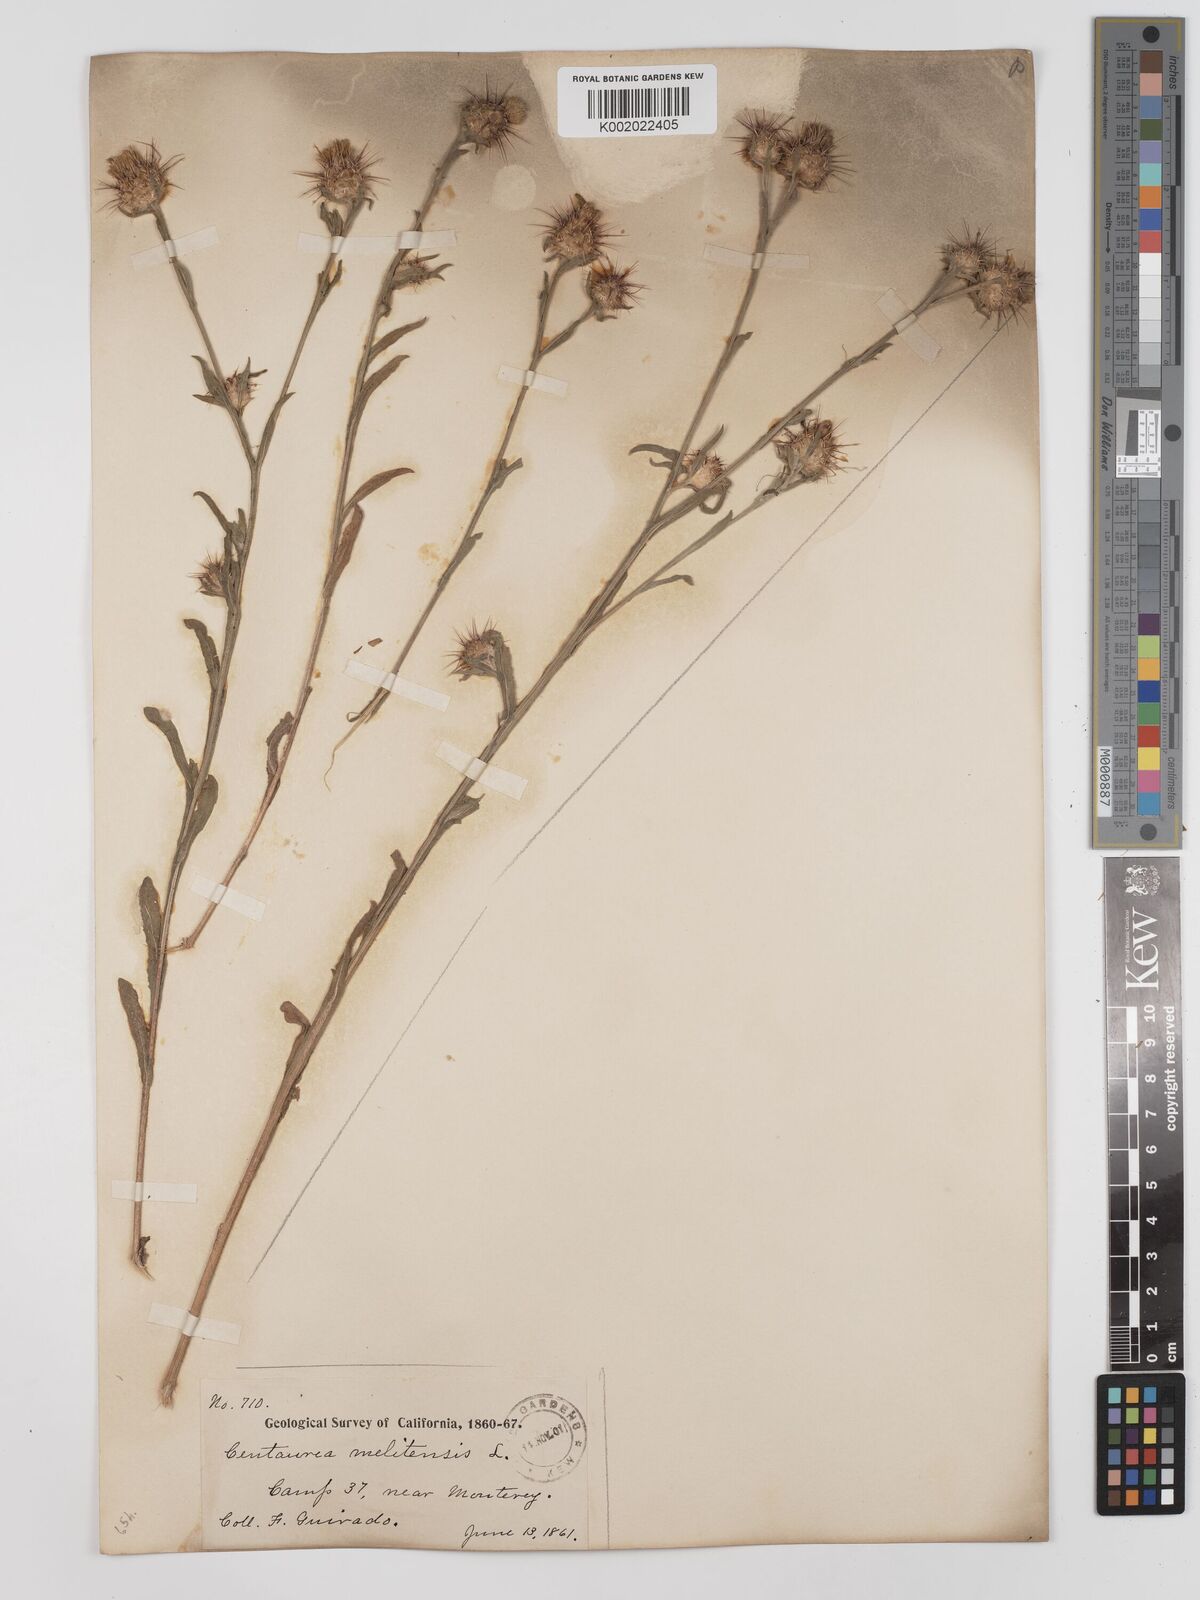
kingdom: Plantae
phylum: Tracheophyta
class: Magnoliopsida
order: Asterales
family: Asteraceae
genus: Centaurea
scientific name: Centaurea melitensis
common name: Maltese star-thistle
